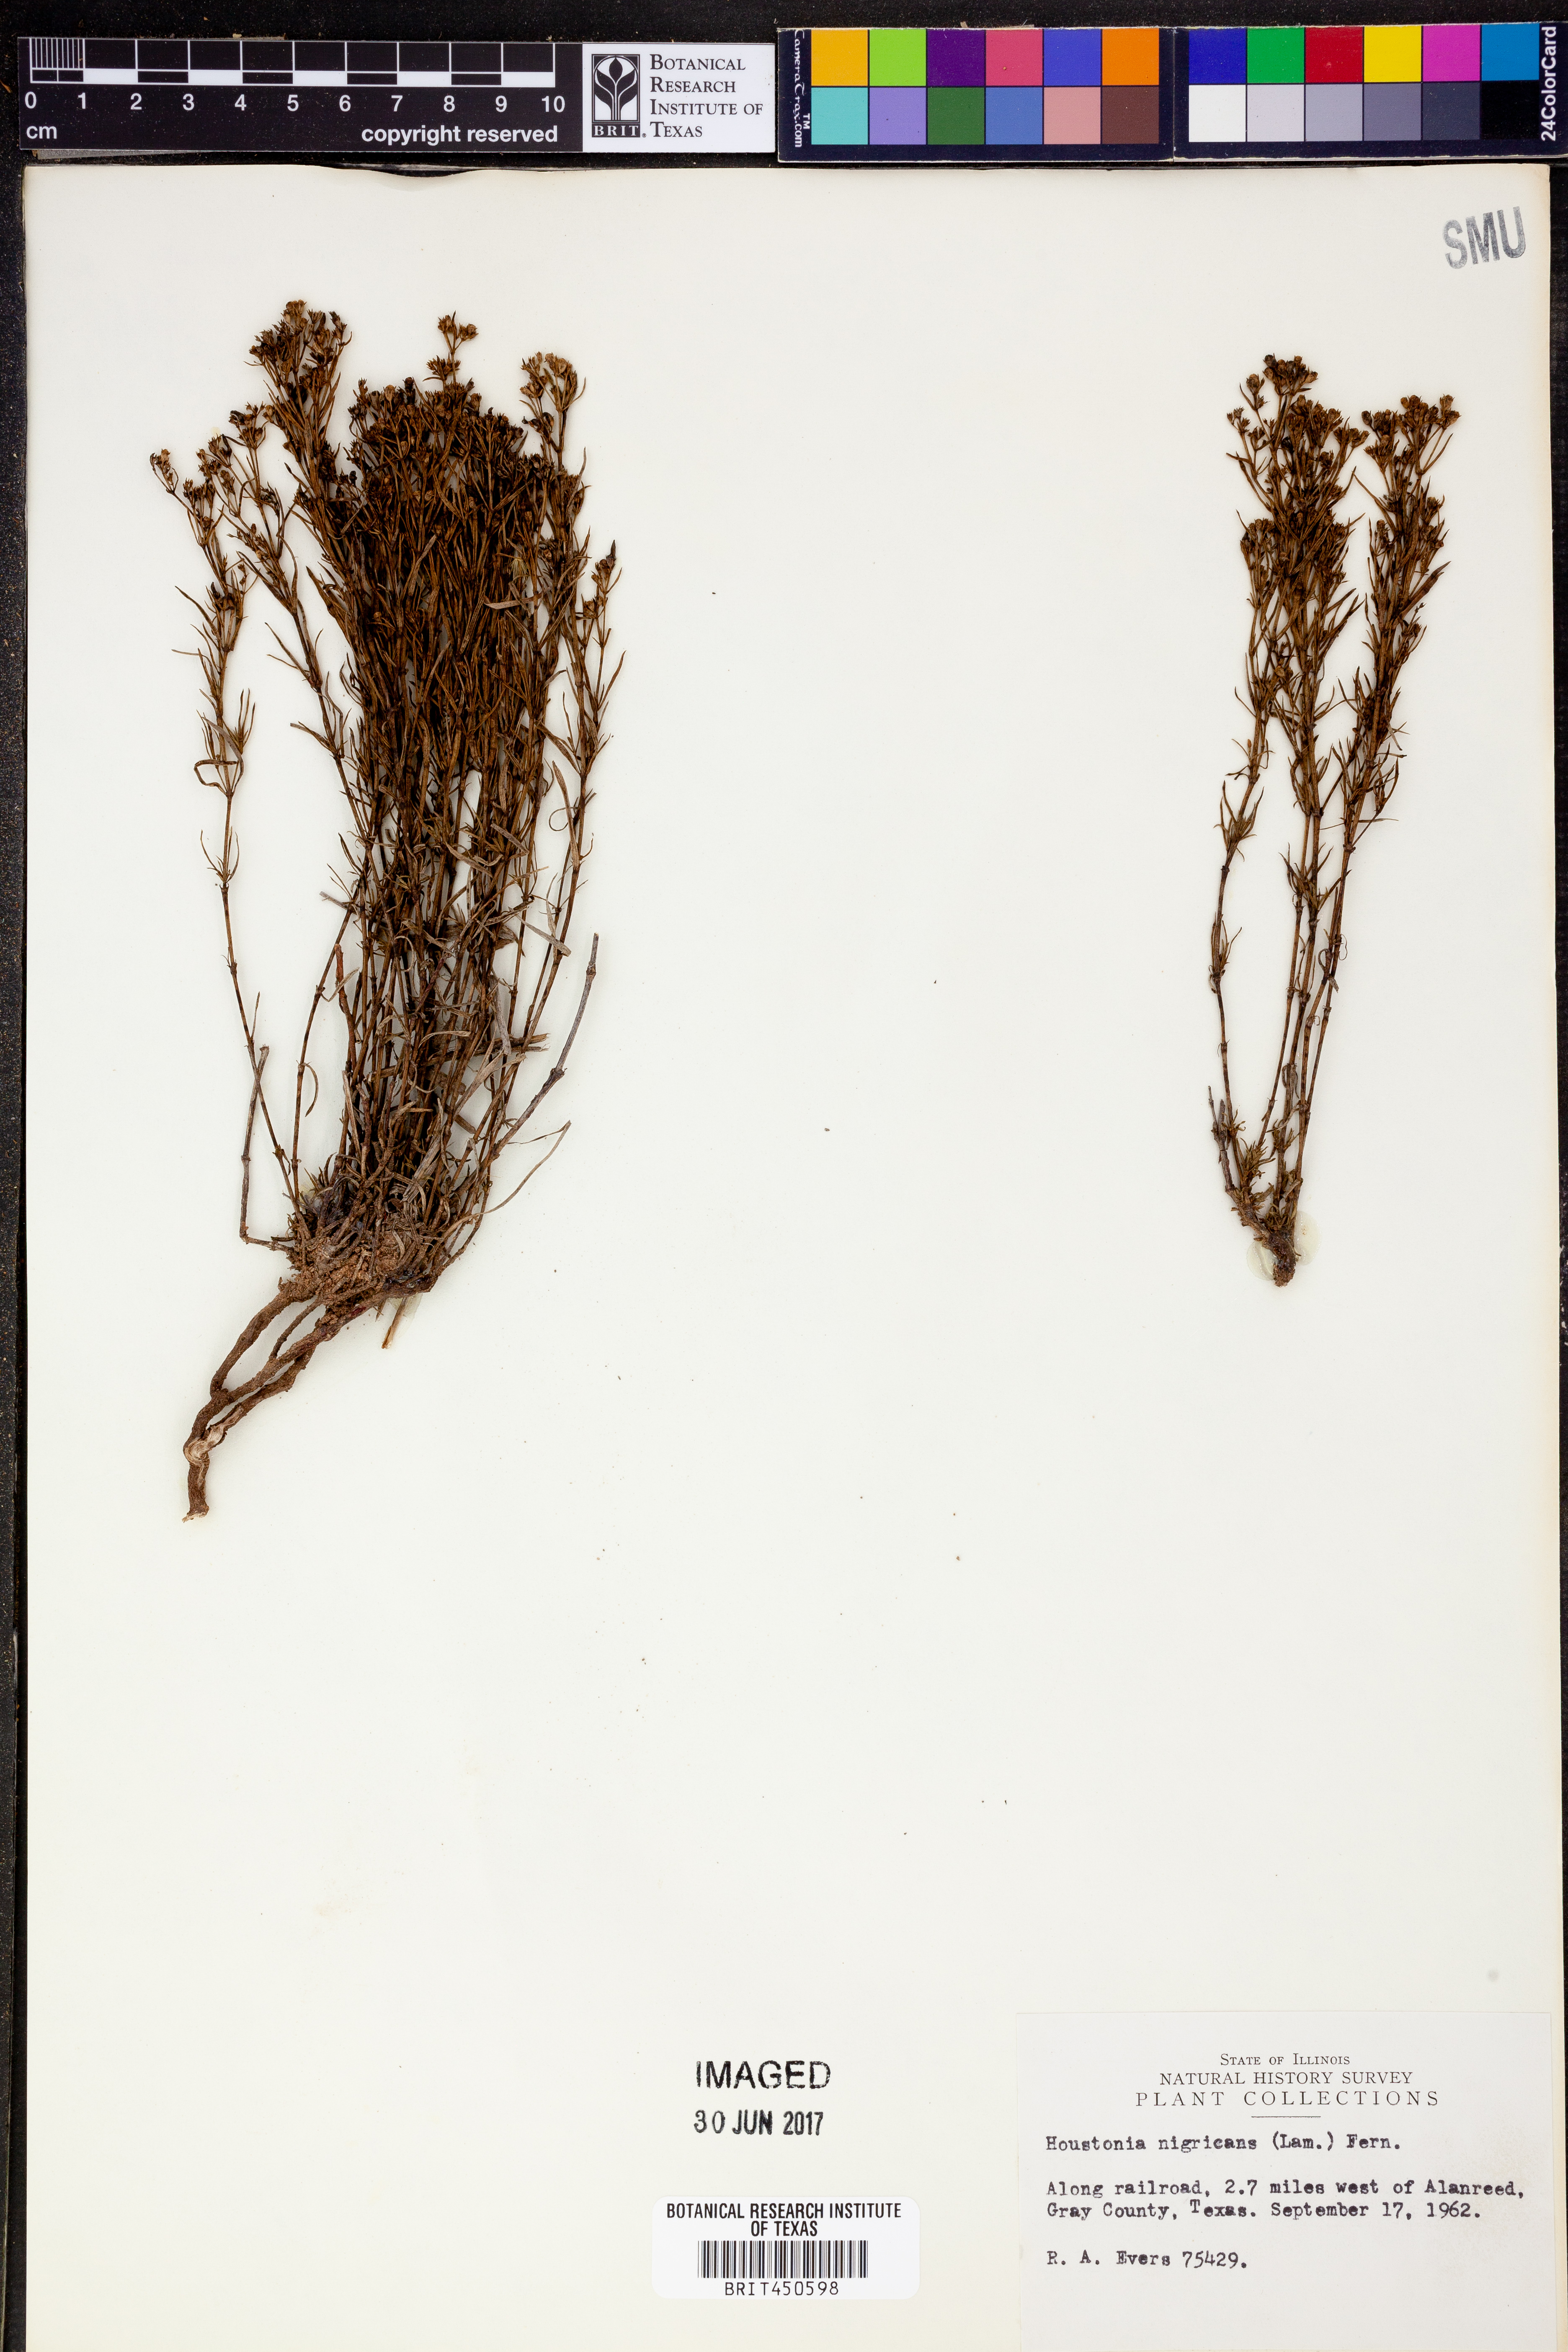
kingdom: Plantae
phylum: Tracheophyta
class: Magnoliopsida
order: Gentianales
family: Rubiaceae
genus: Stenaria
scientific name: Stenaria nigricans
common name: Diamondflowers
